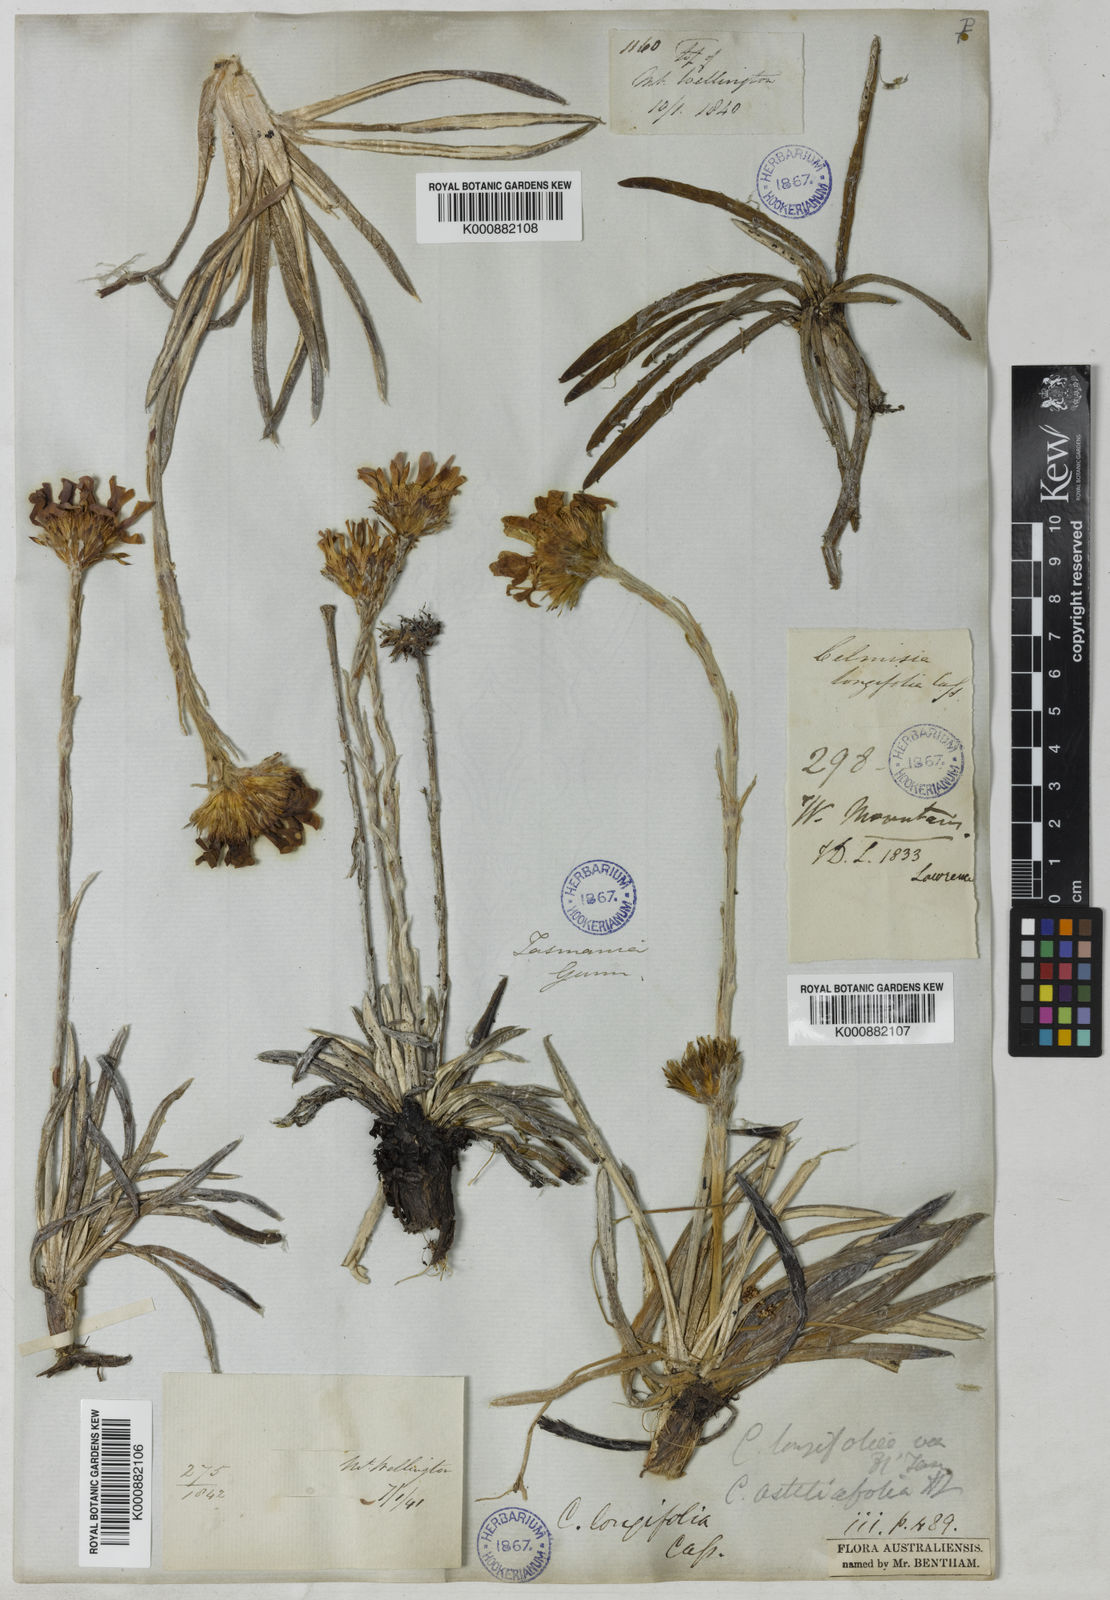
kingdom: Plantae
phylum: Tracheophyta
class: Magnoliopsida
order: Asterales
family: Asteraceae
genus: Celmisia
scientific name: Celmisia longifolia
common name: Silver snow daisy
